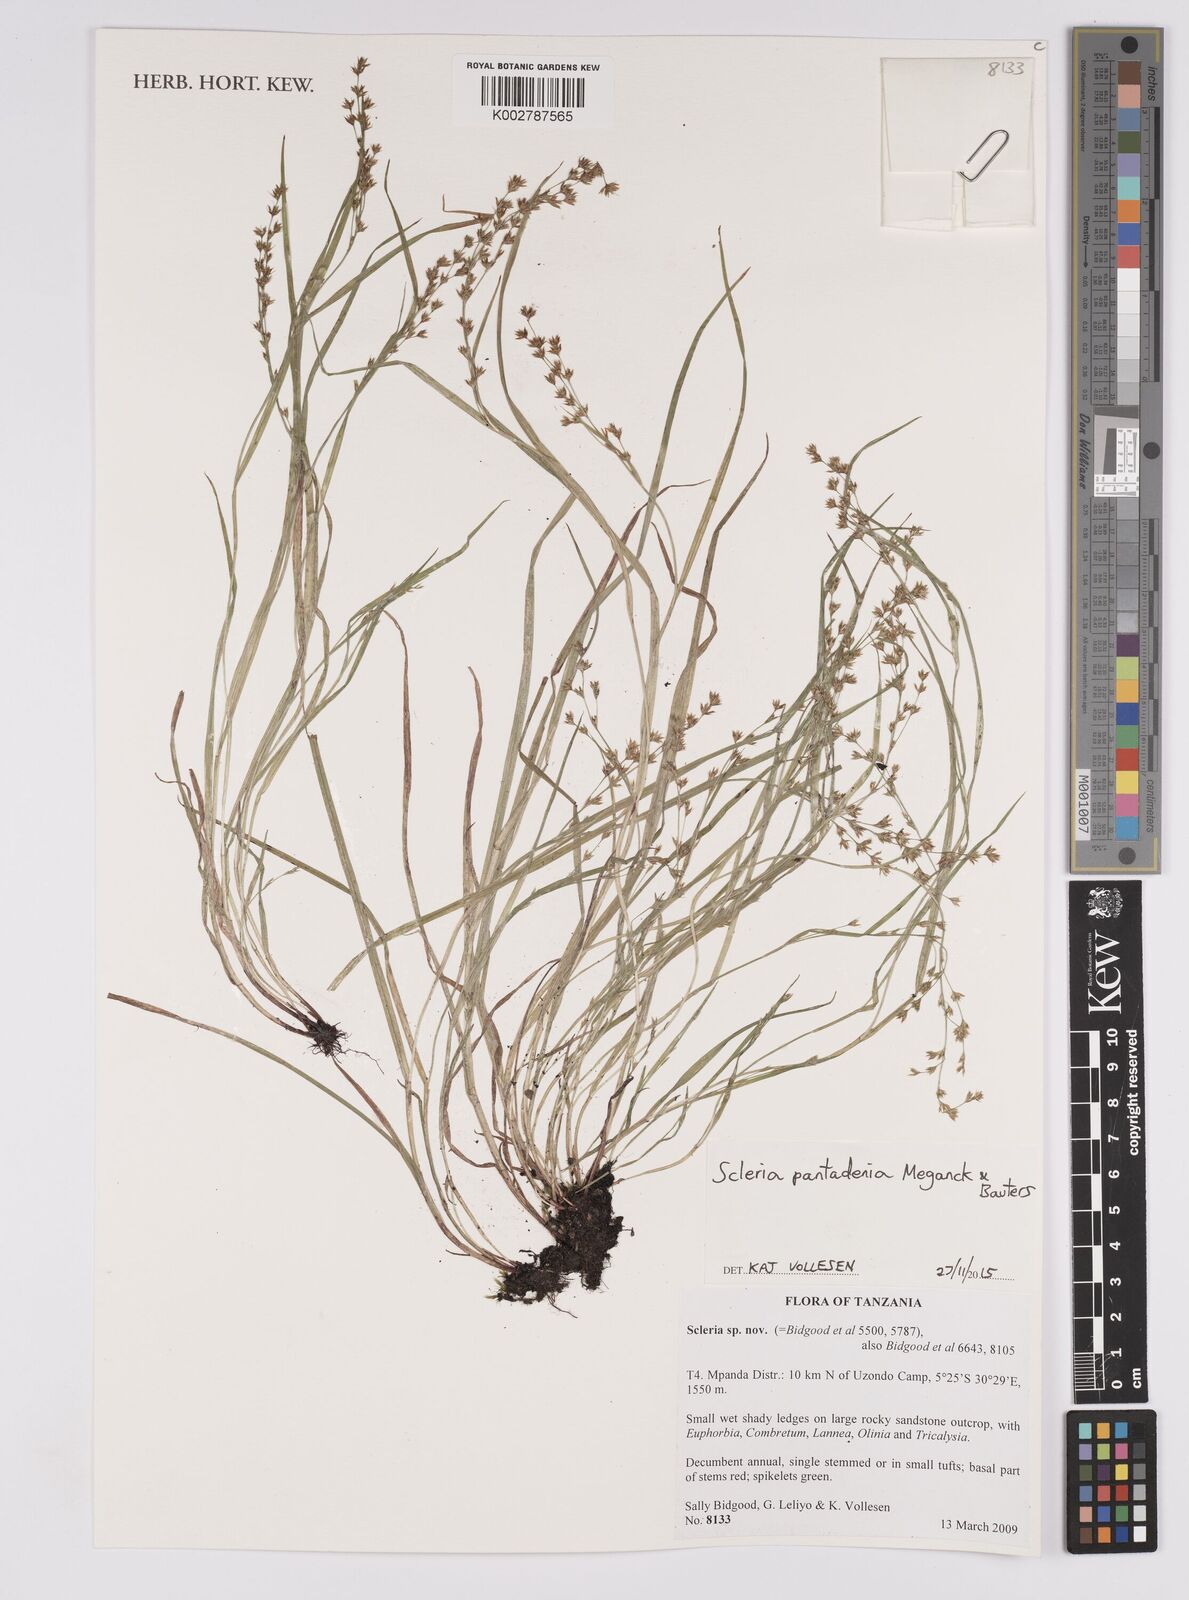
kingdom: Plantae
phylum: Tracheophyta
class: Liliopsida
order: Poales
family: Cyperaceae
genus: Scleria
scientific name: Scleria pantadenia
